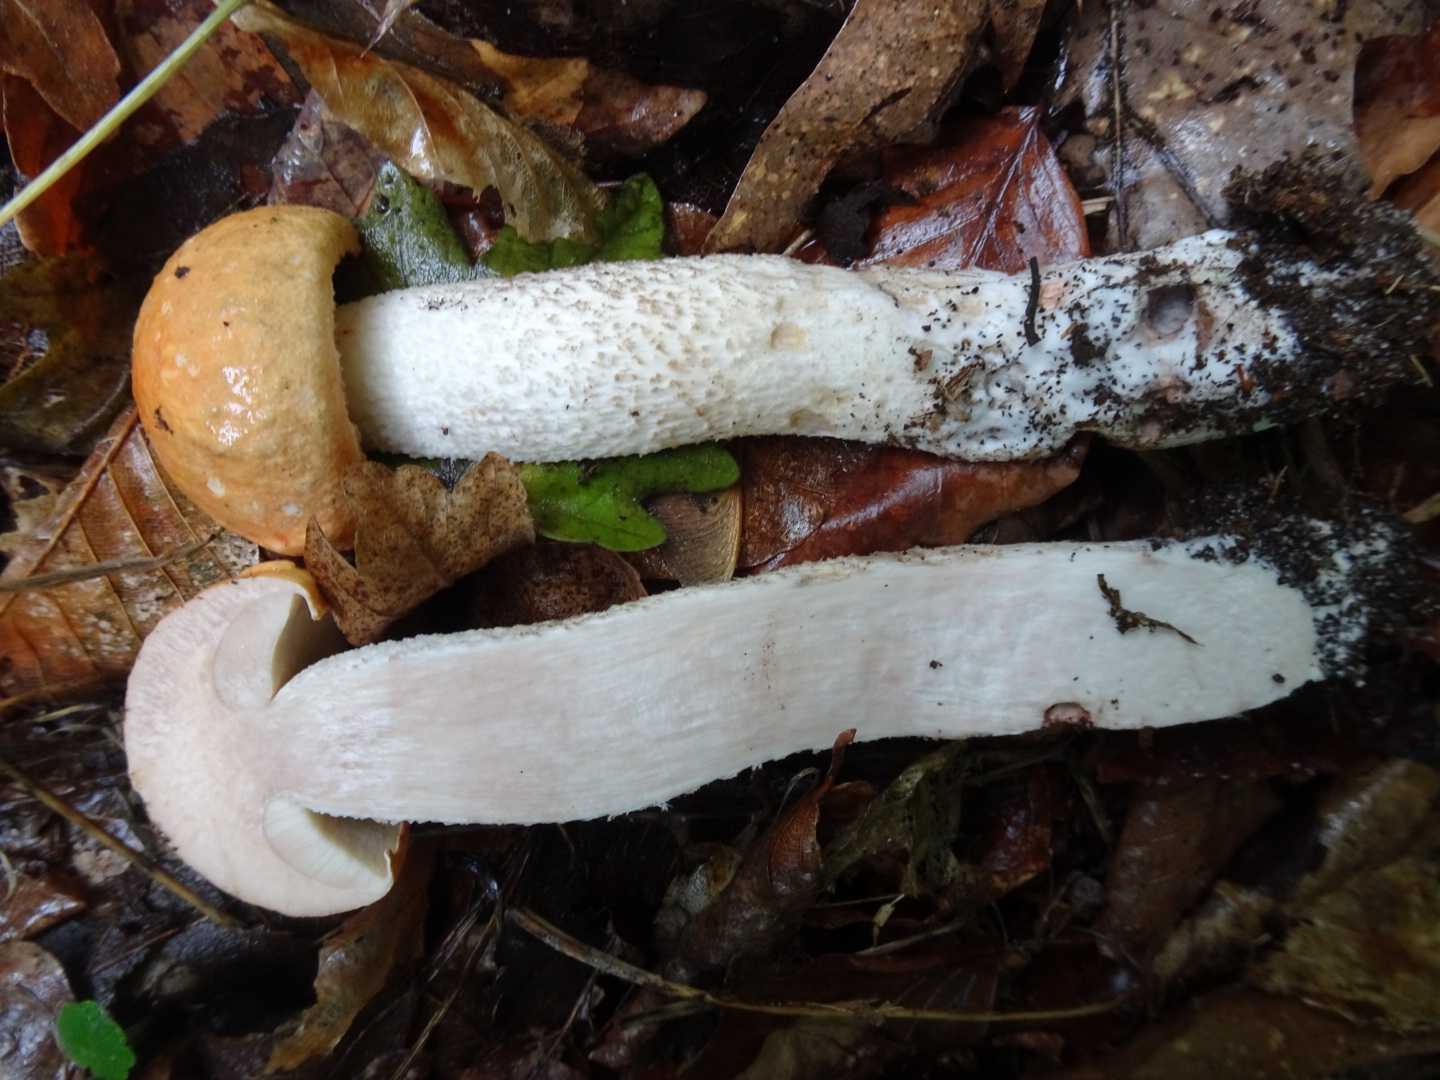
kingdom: Fungi
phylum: Basidiomycota
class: Agaricomycetes
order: Boletales
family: Boletaceae
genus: Leccinum
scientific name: Leccinum versipelle
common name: orange skælrørhat
